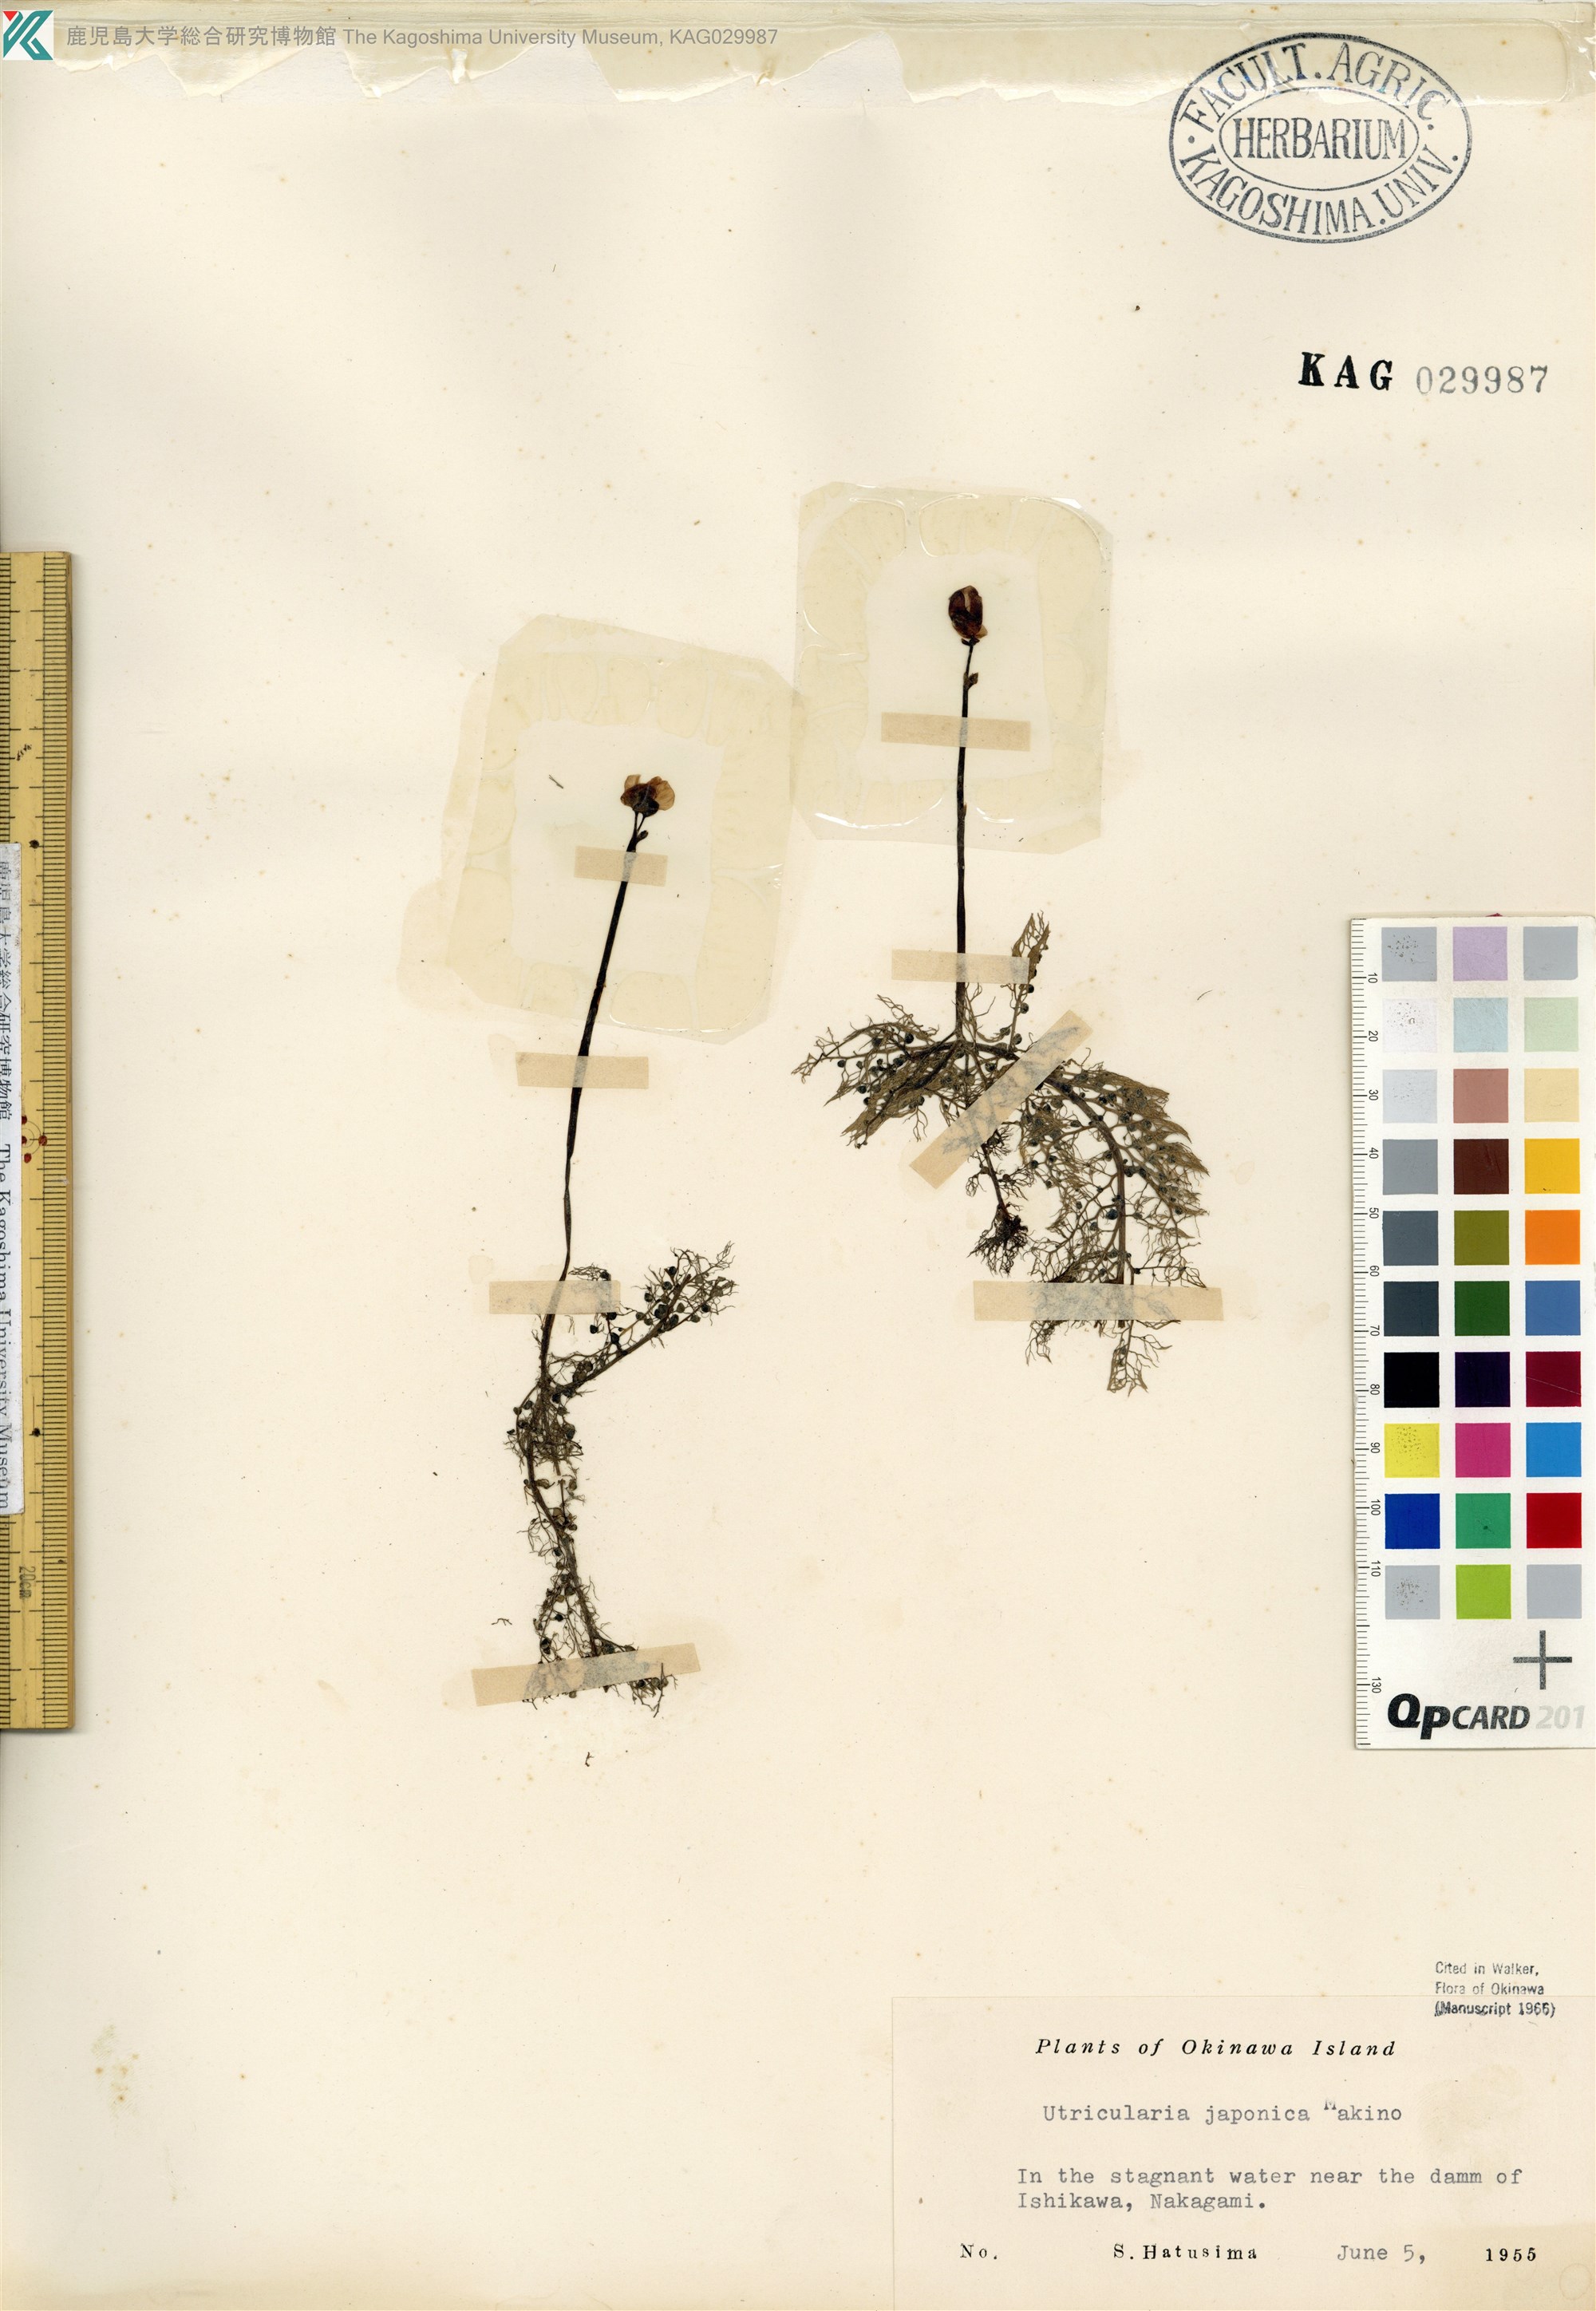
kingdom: Plantae
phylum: Tracheophyta
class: Magnoliopsida
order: Lamiales
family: Lentibulariaceae
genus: Utricularia
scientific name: Utricularia japonica
